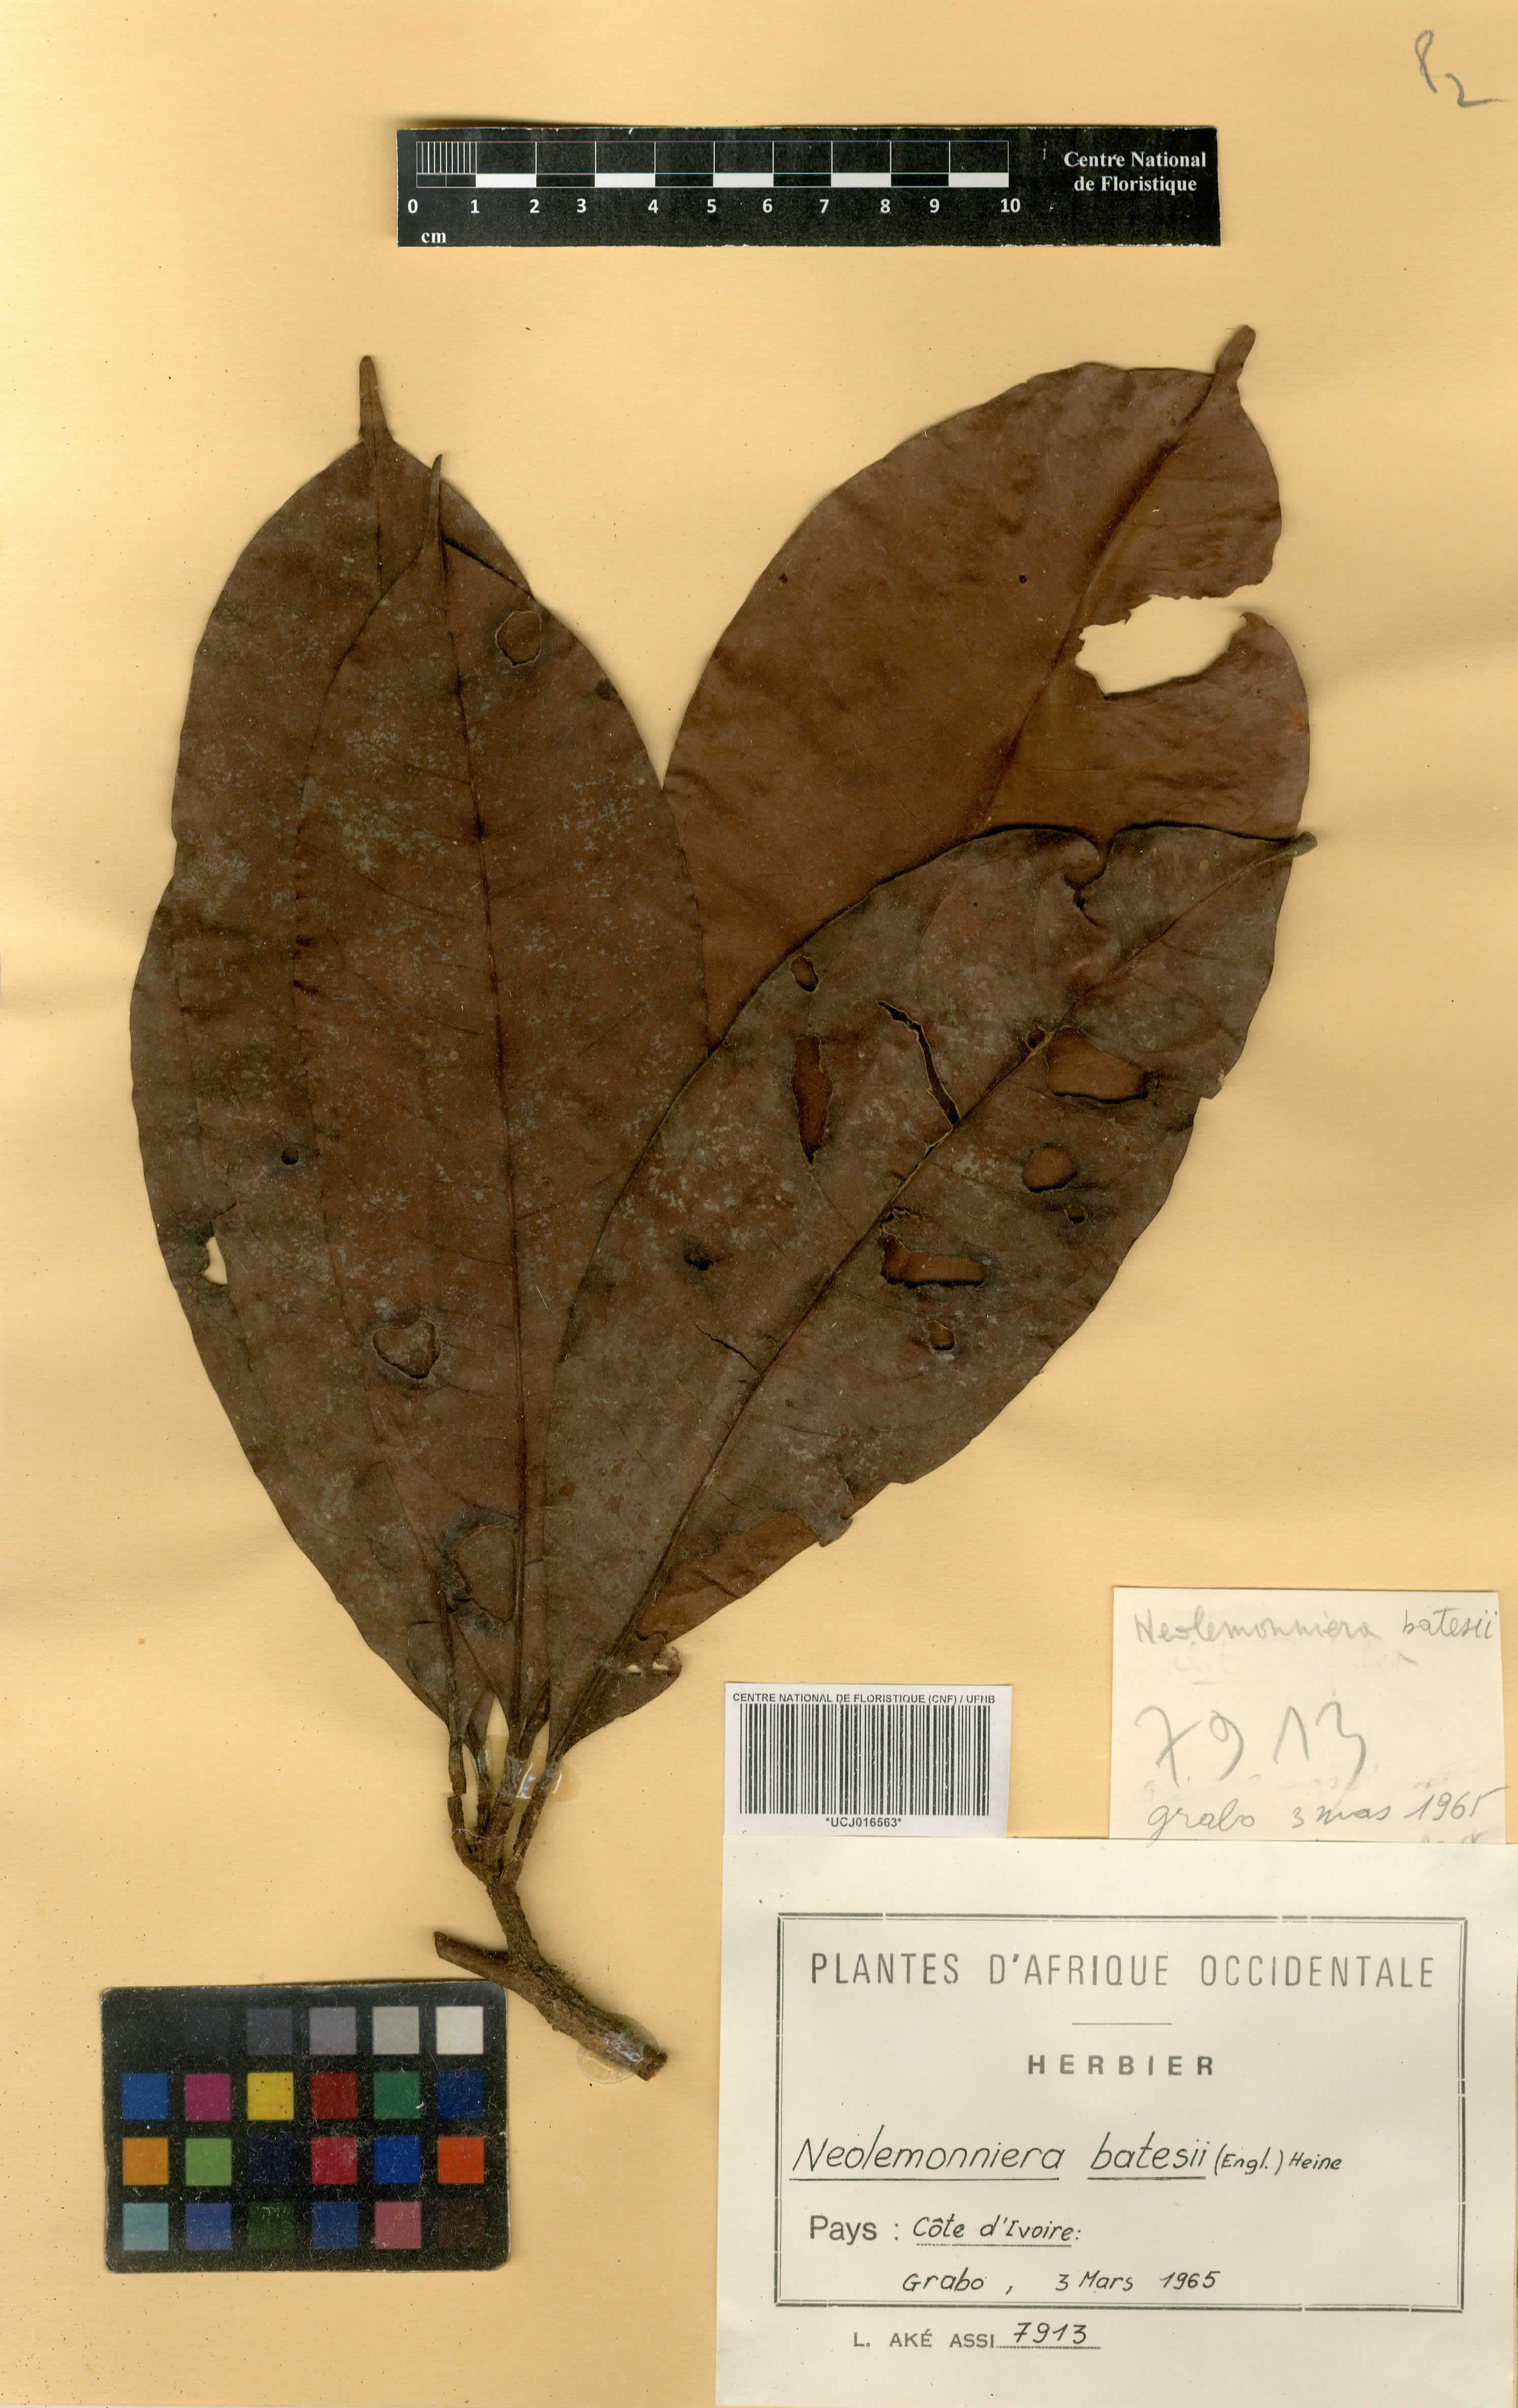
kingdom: Plantae
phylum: Tracheophyta
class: Magnoliopsida
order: Ericales
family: Sapotaceae
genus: Neolemonniera
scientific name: Neolemonniera batesii
